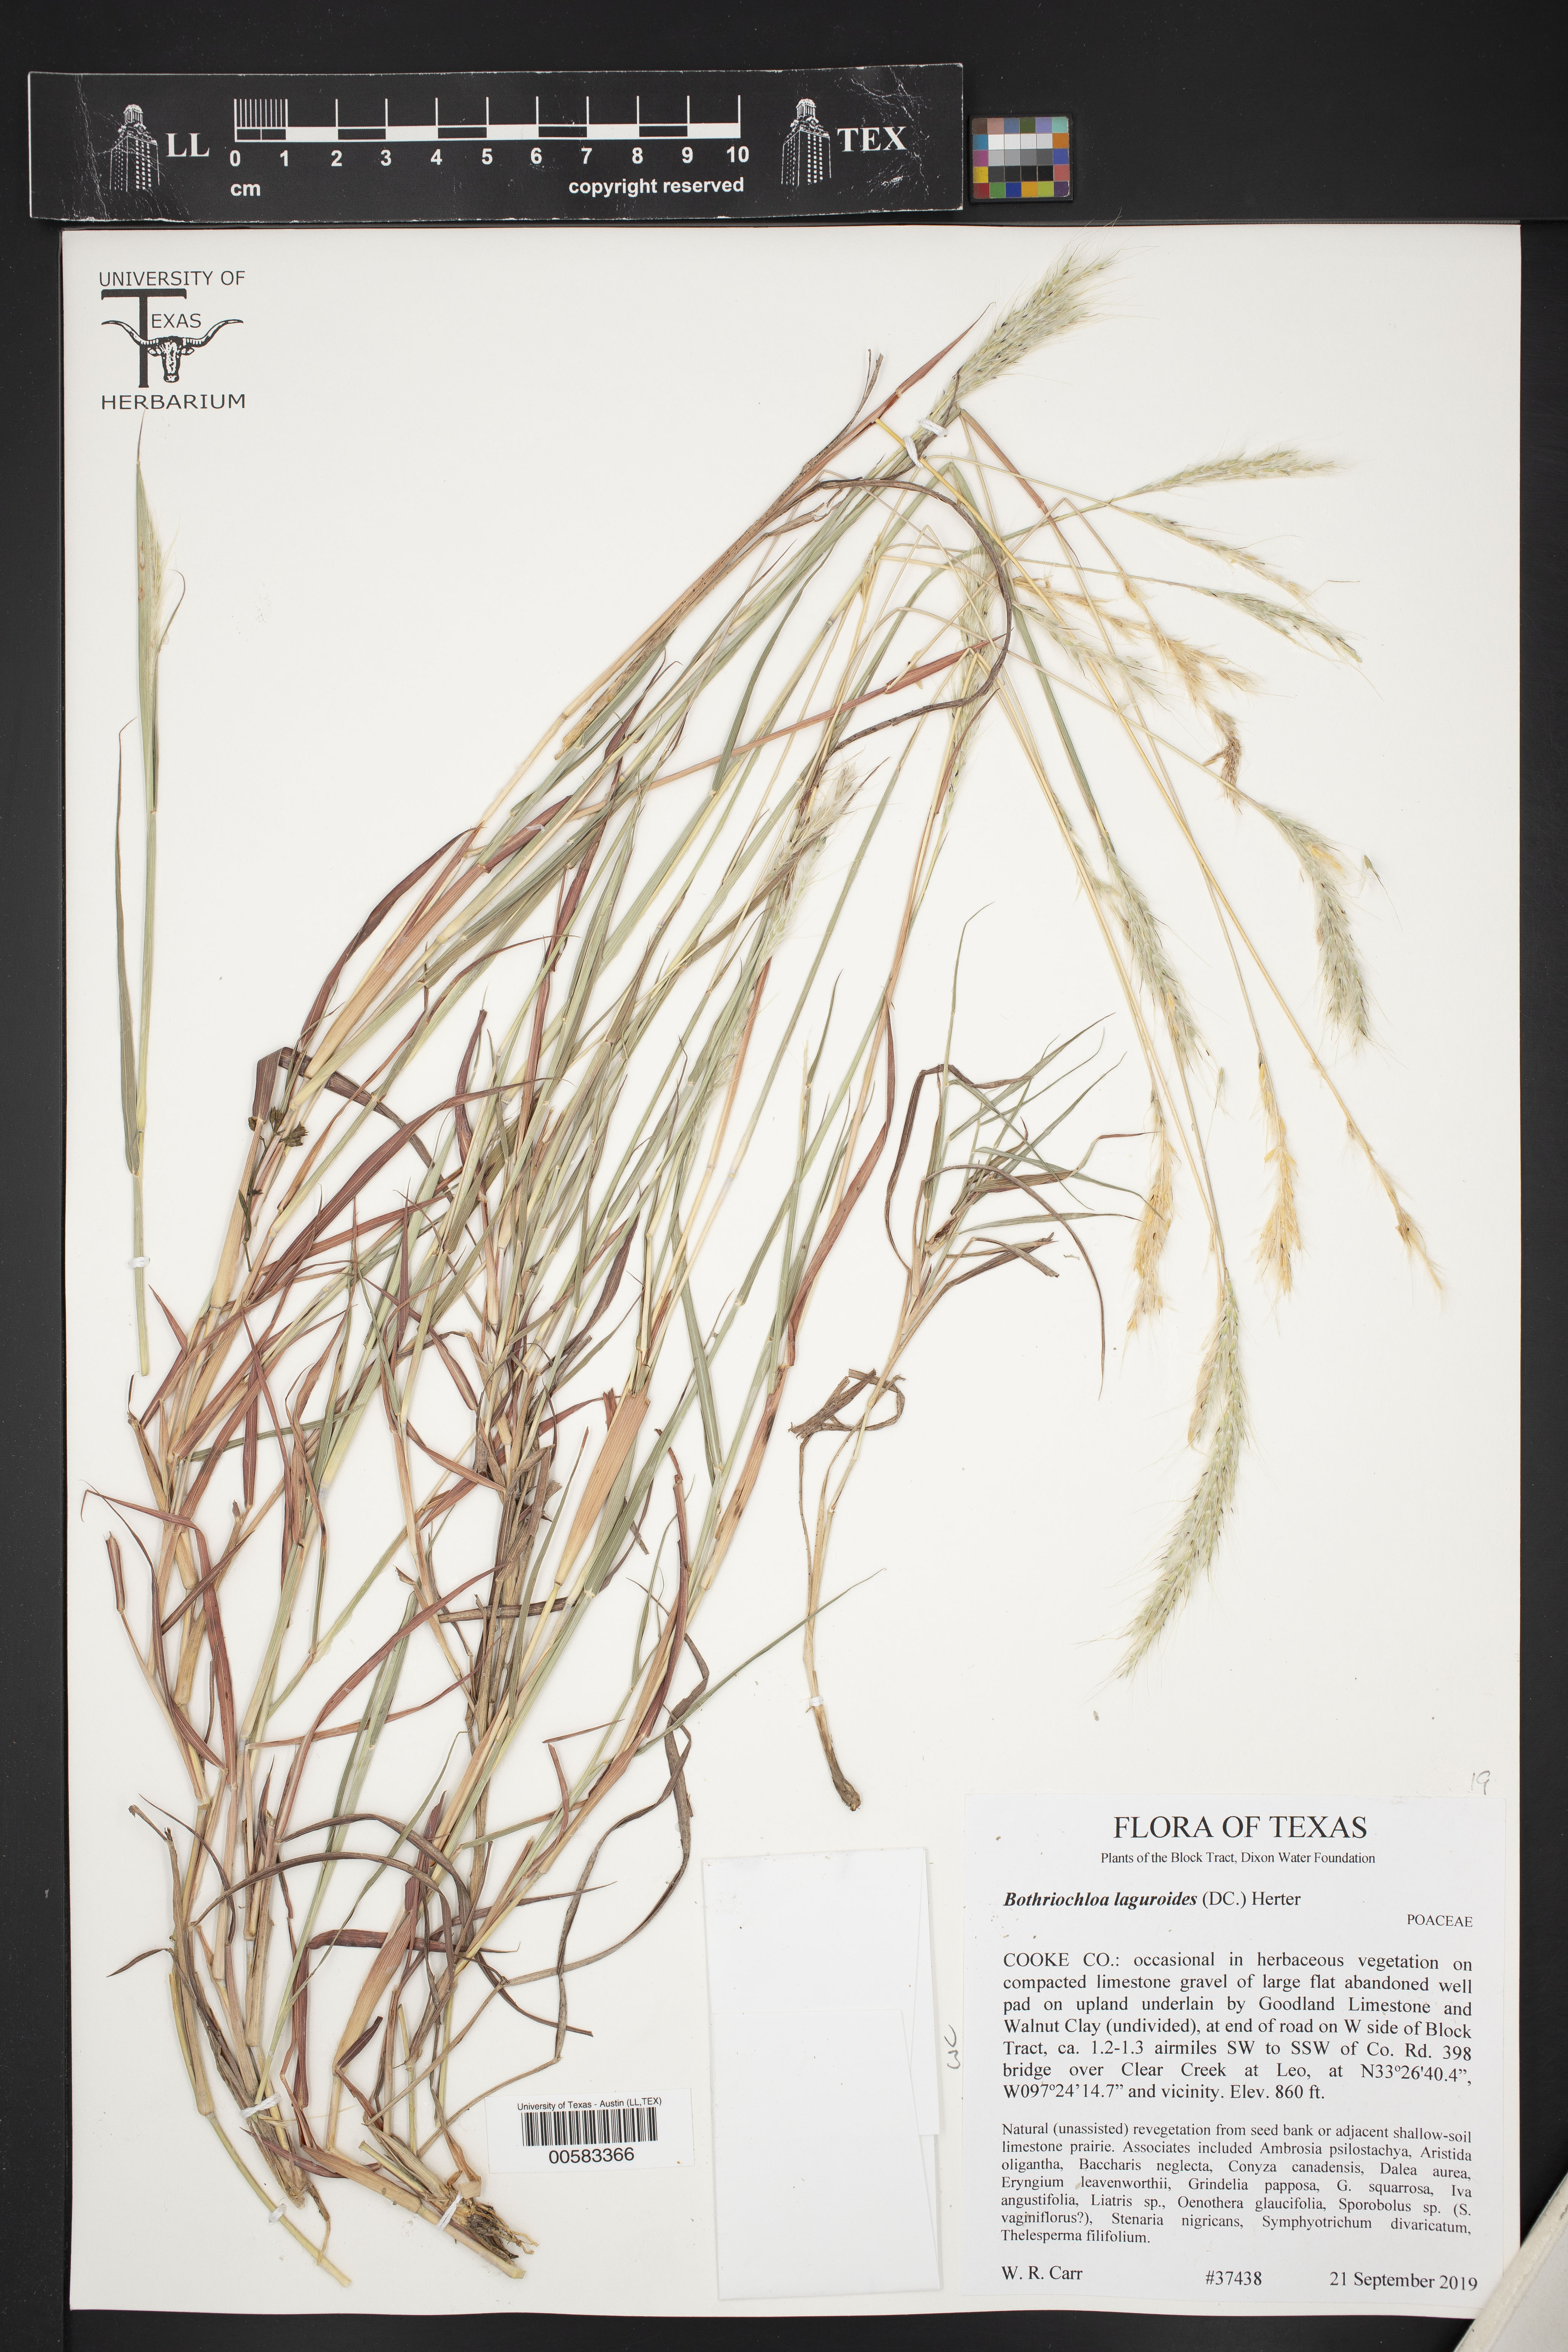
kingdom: Plantae
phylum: Tracheophyta
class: Liliopsida
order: Poales
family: Poaceae
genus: Bothriochloa
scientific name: Bothriochloa laguroides
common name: Silver bluestem
